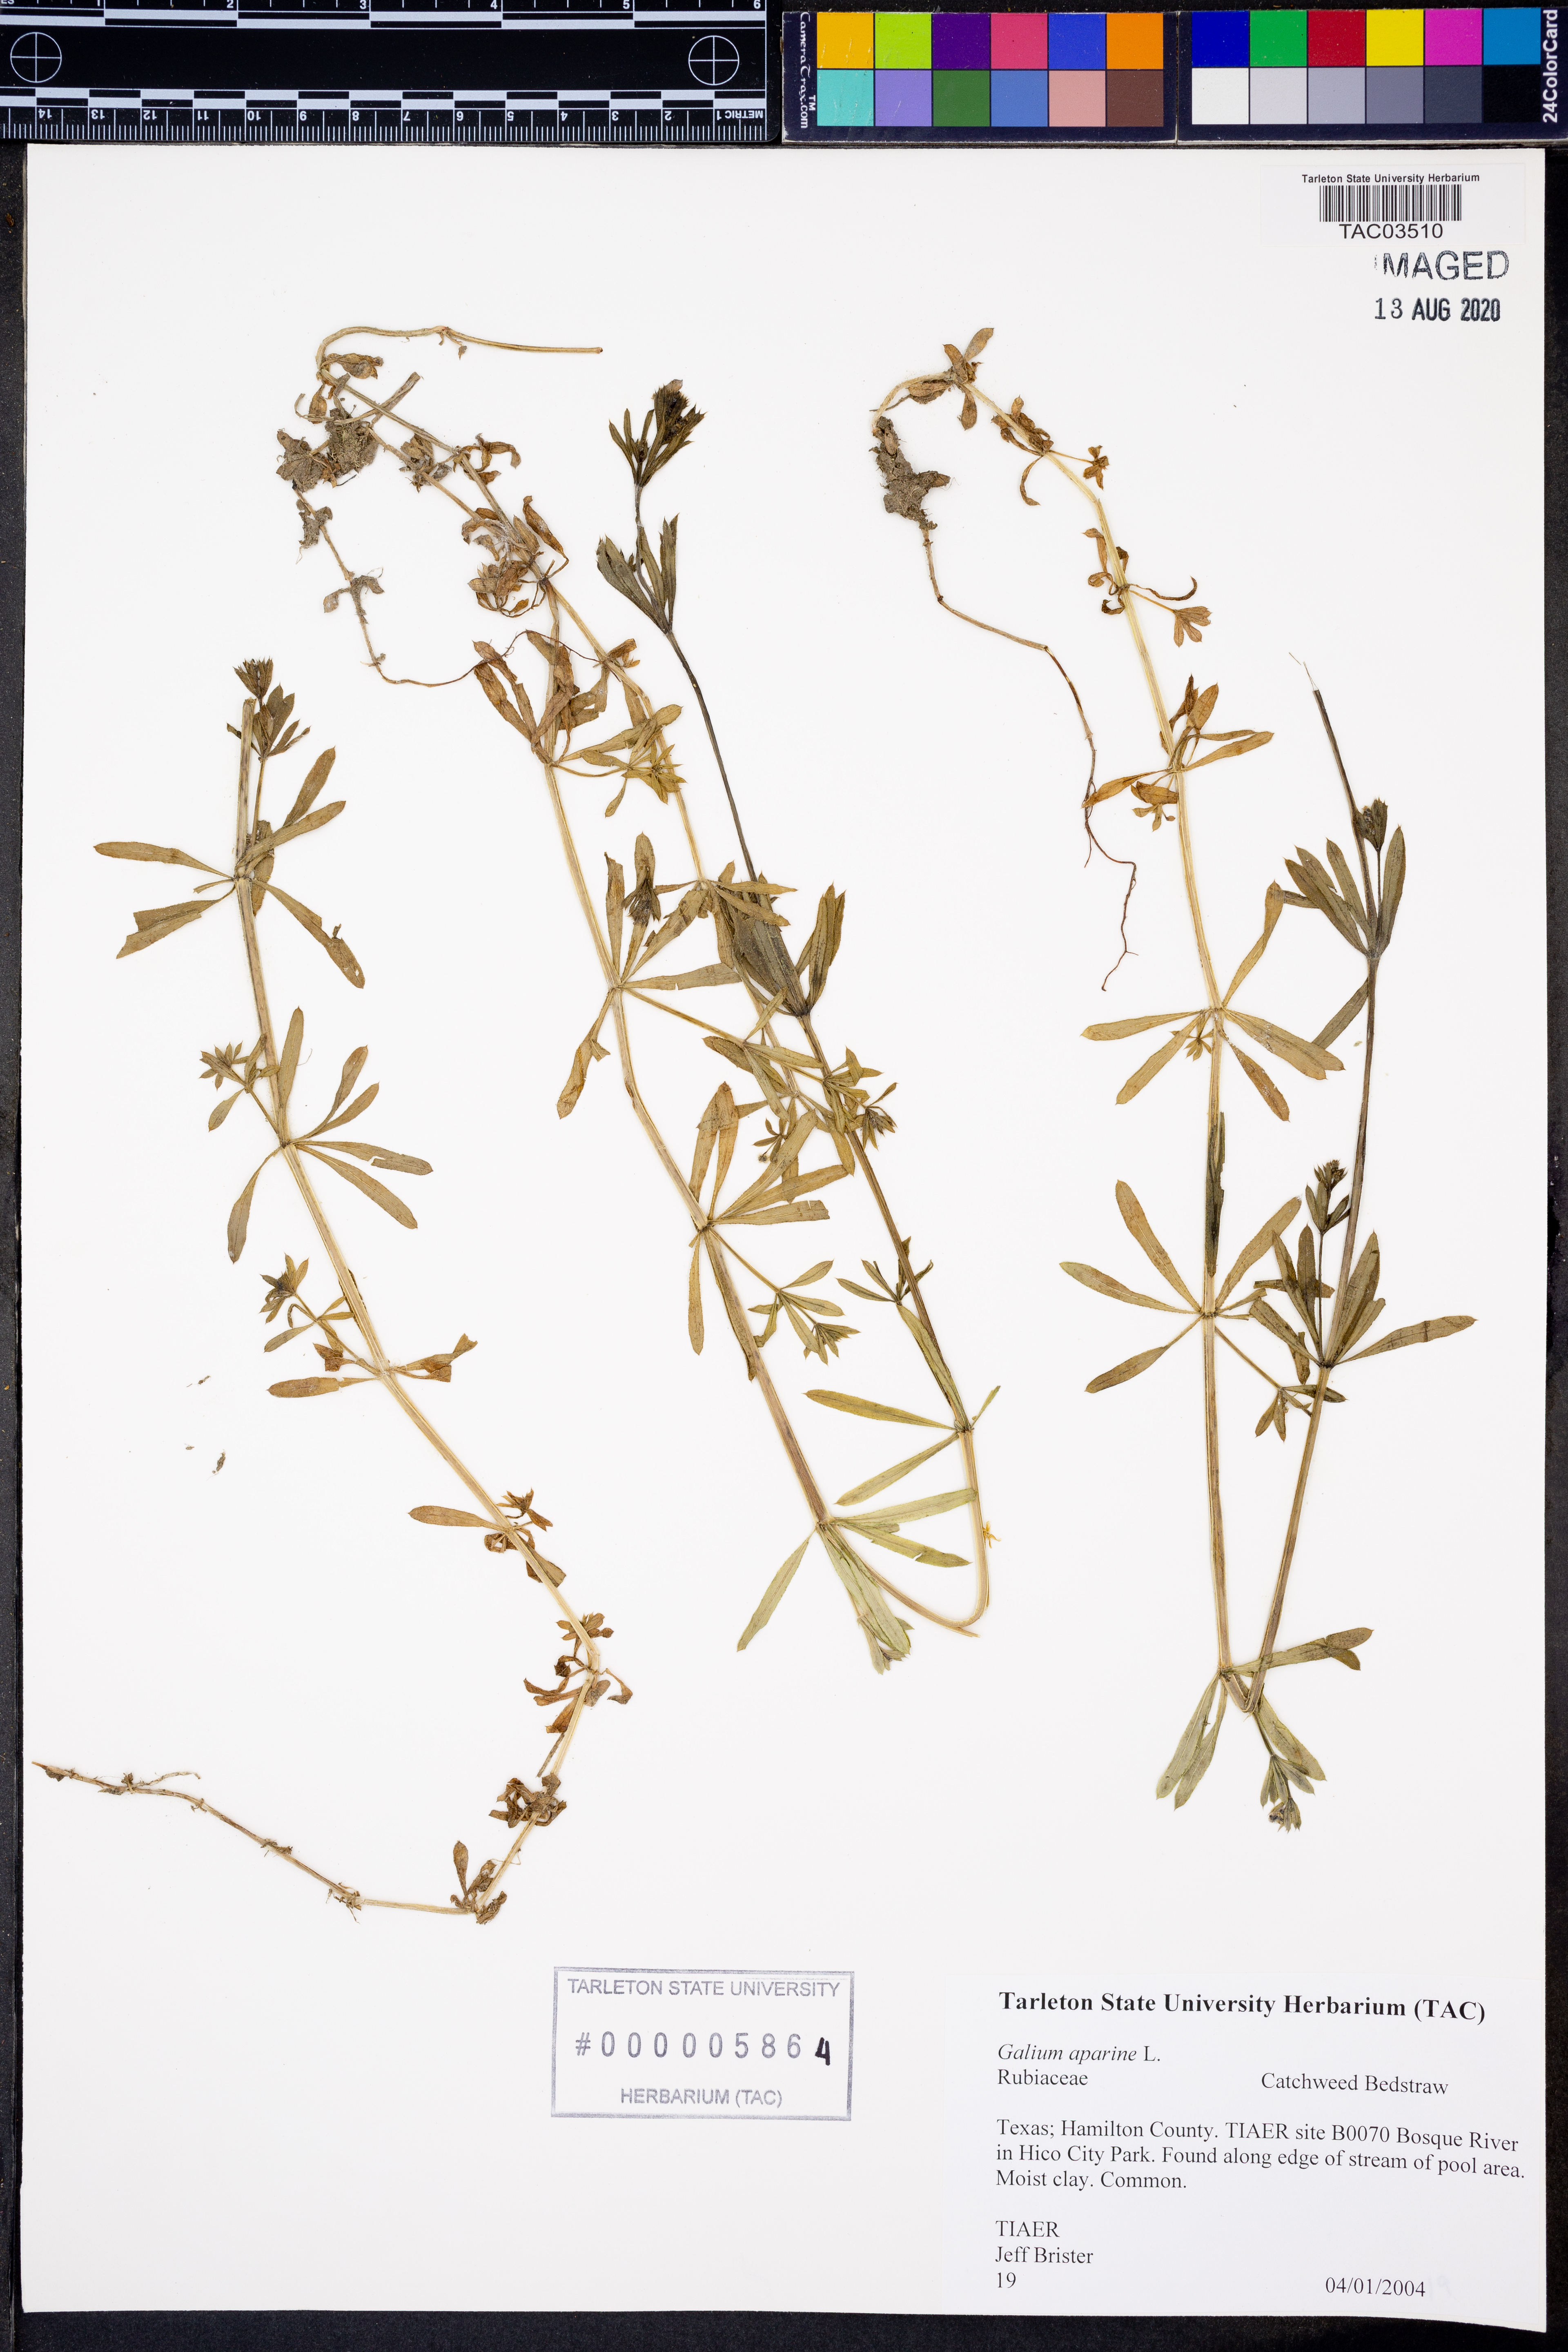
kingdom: Plantae
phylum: Tracheophyta
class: Magnoliopsida
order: Gentianales
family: Rubiaceae
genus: Galium
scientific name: Galium aparine
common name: Cleavers
